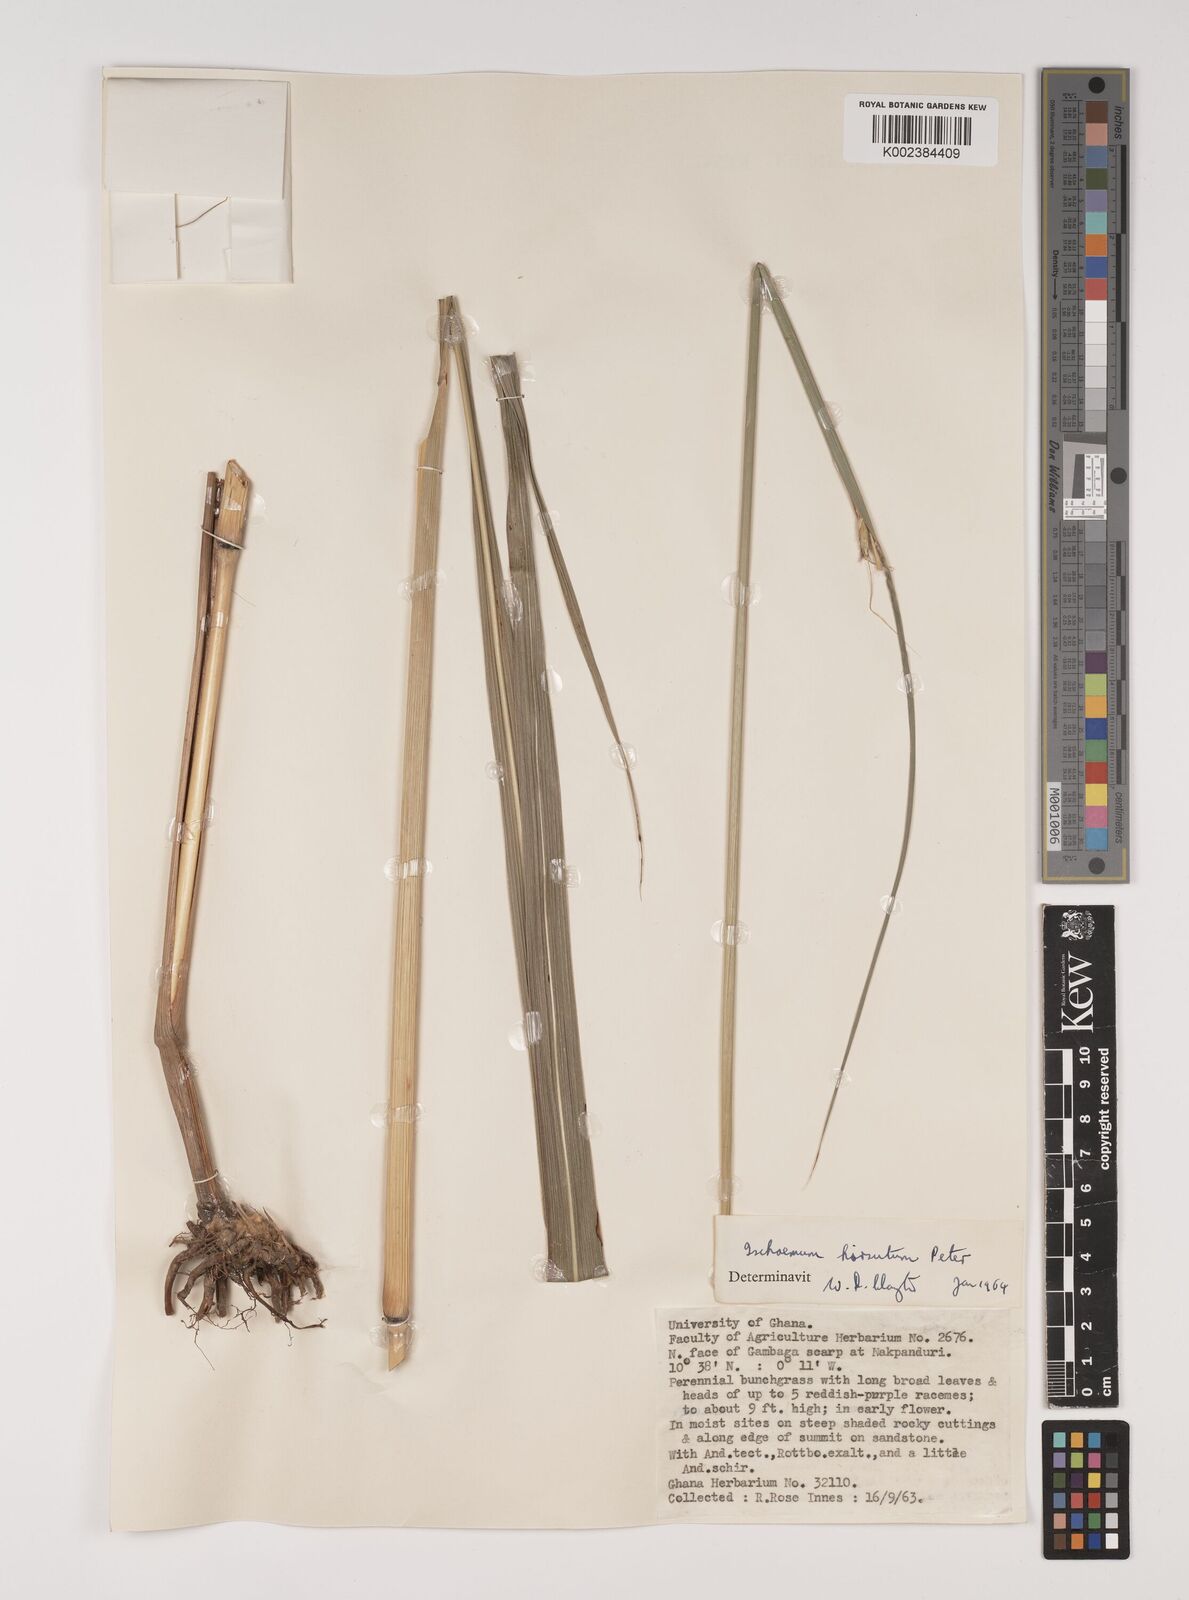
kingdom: Plantae
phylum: Tracheophyta
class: Liliopsida
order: Poales
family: Poaceae
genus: Rottboellia
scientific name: Rottboellia villosa
